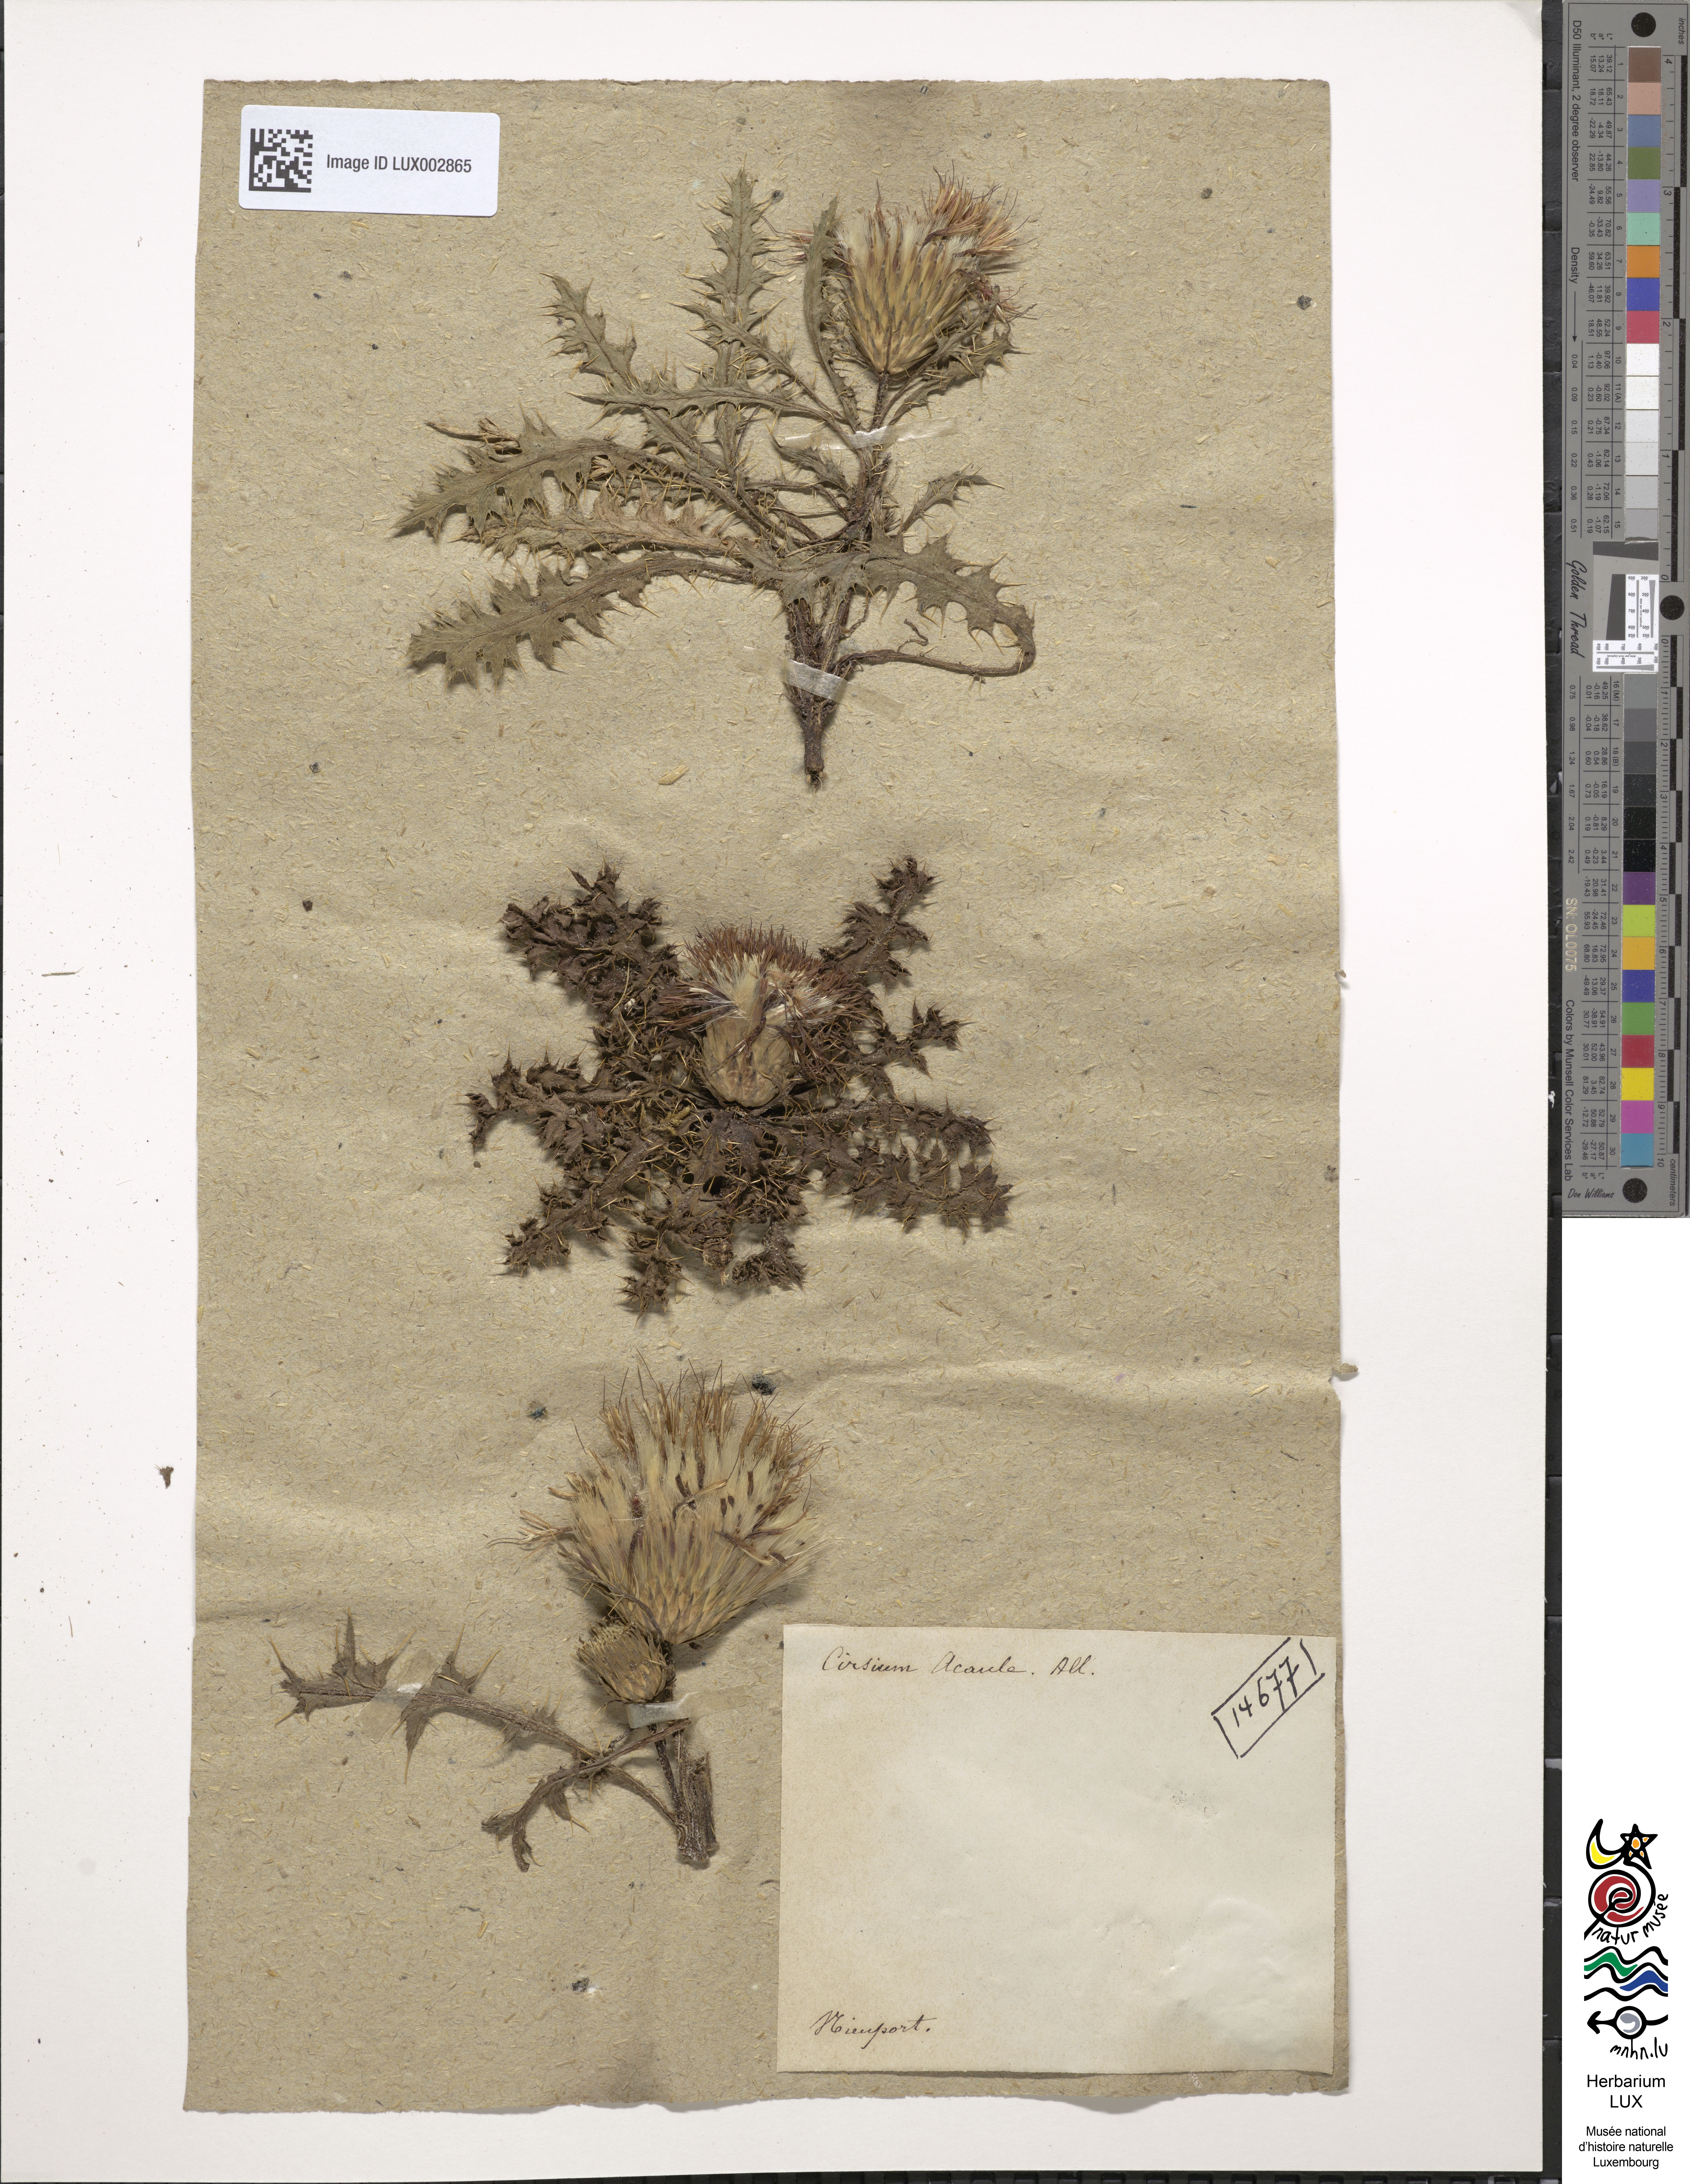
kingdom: Plantae
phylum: Tracheophyta
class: Magnoliopsida
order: Asterales
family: Asteraceae
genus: Cirsium
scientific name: Cirsium acaule
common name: Dwarf thistle
